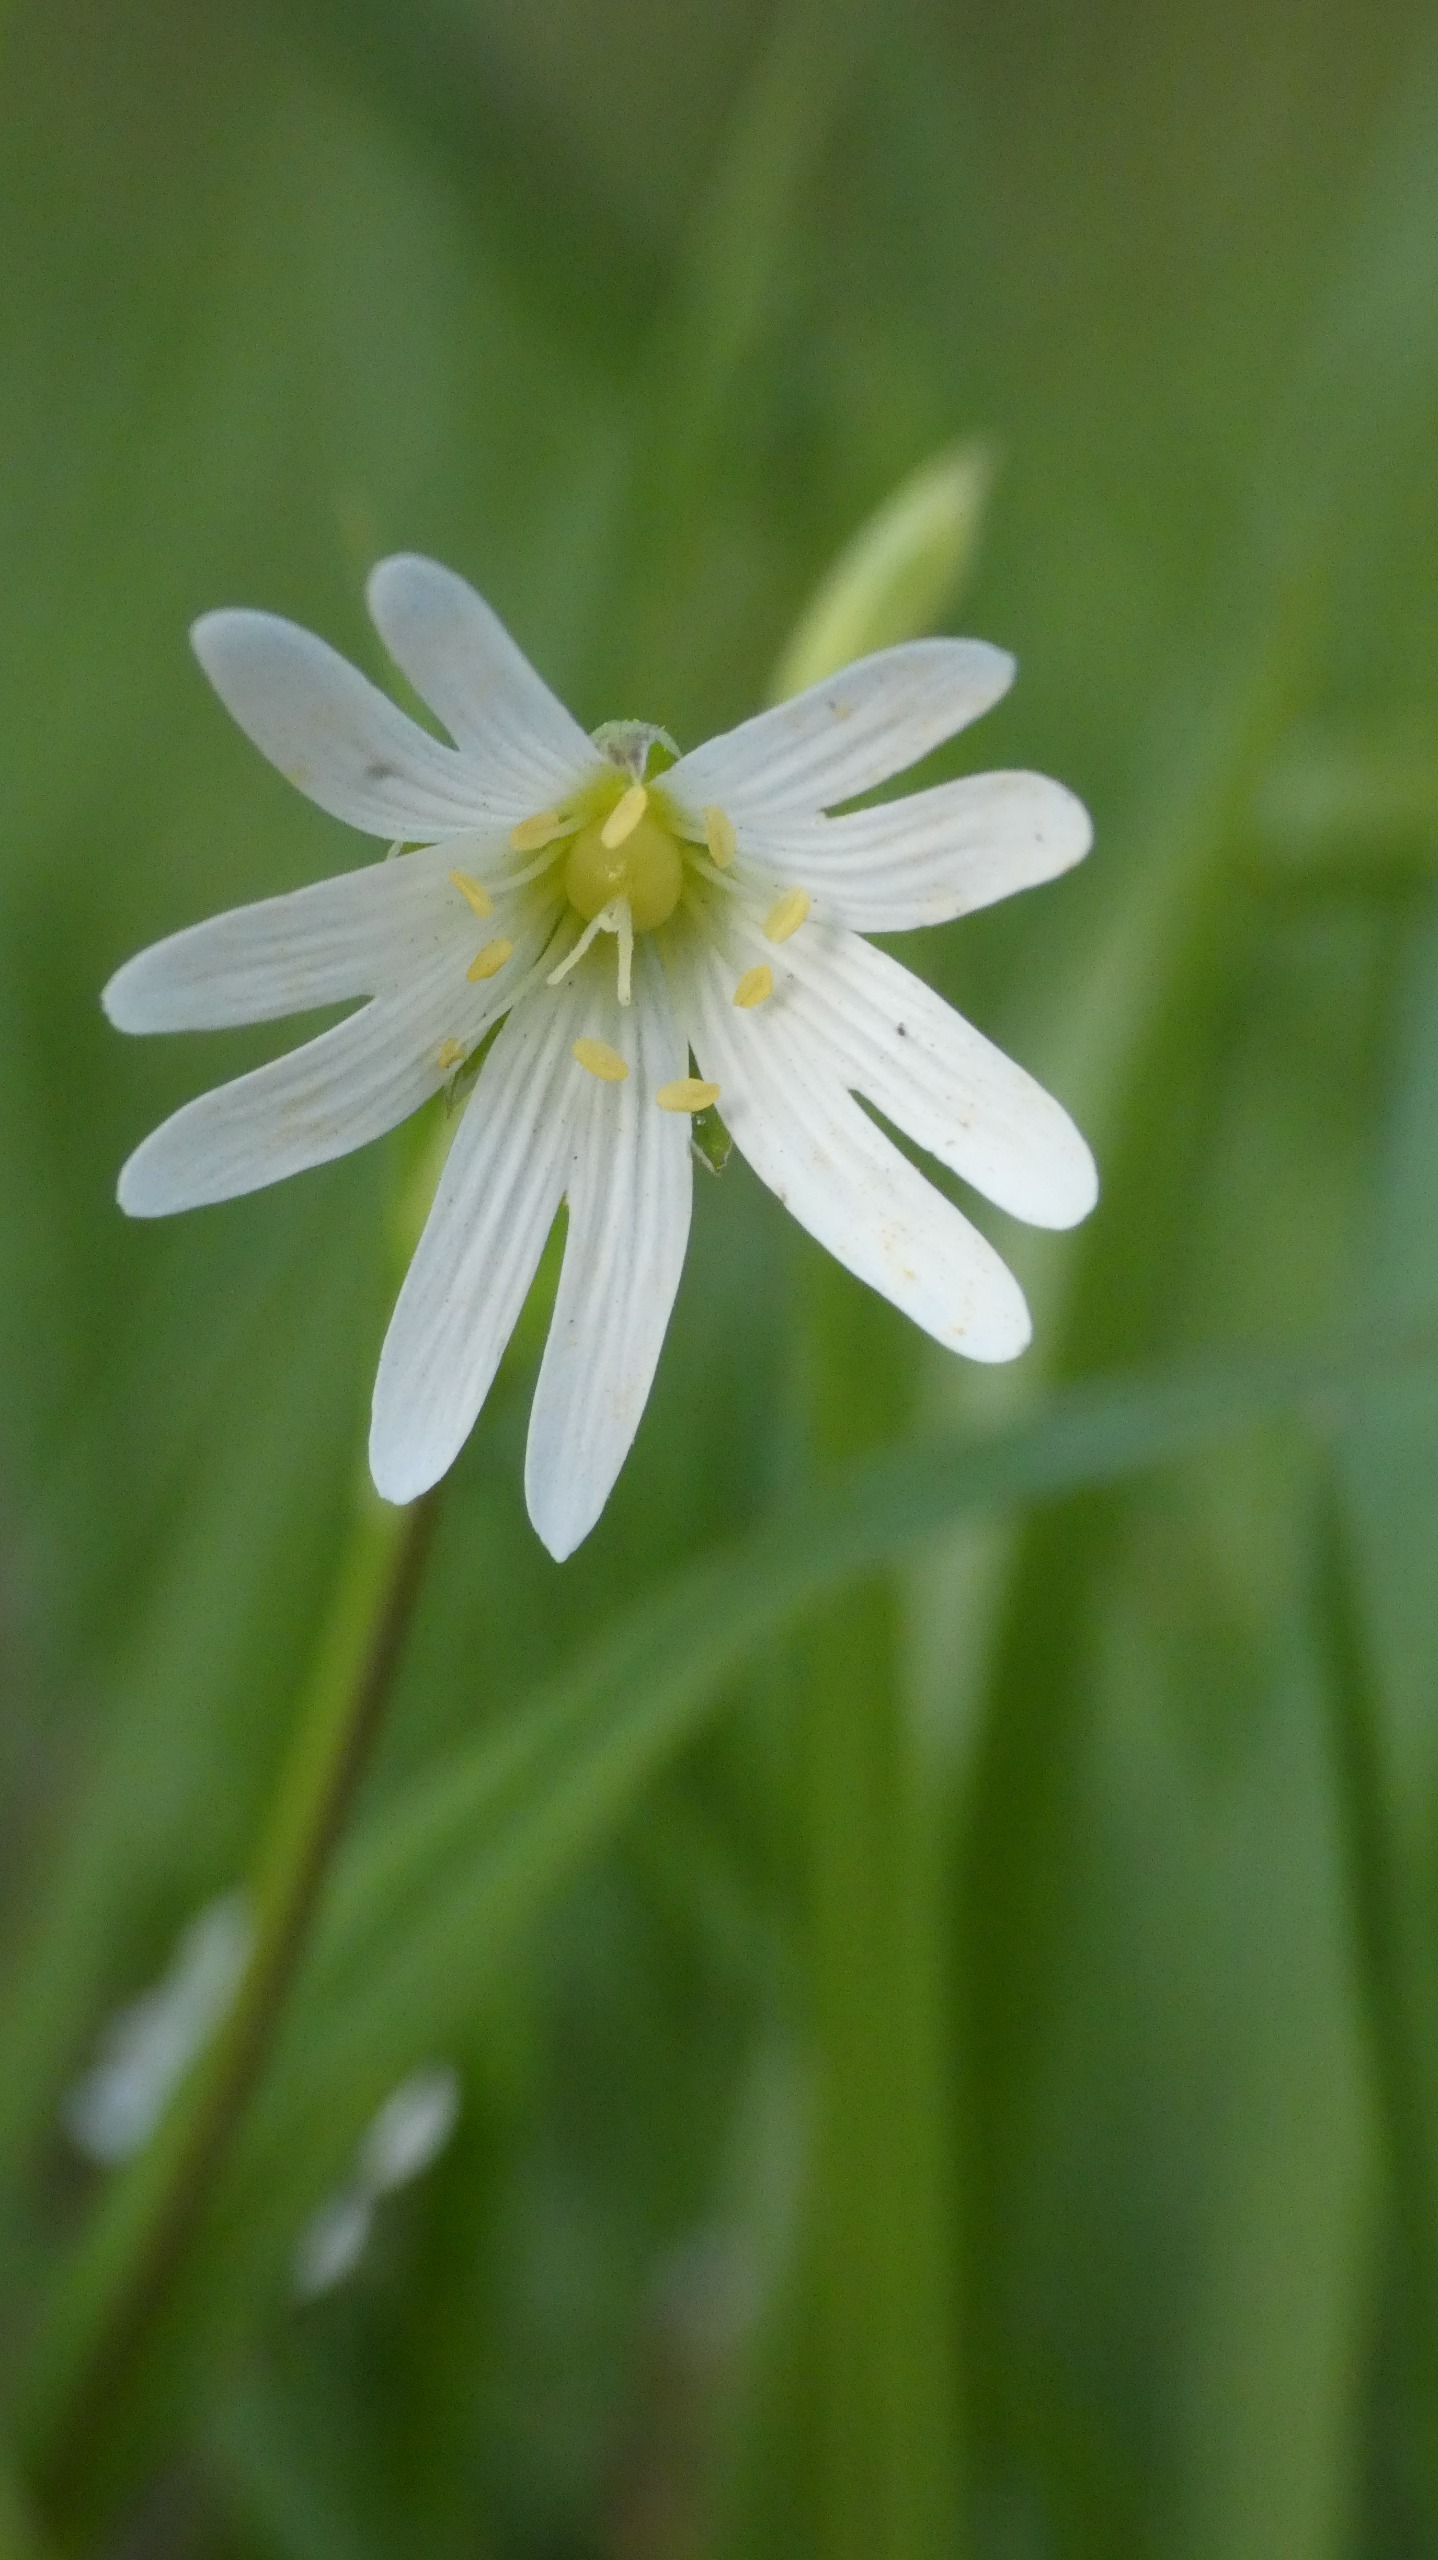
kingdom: Plantae
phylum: Tracheophyta
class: Magnoliopsida
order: Caryophyllales
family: Caryophyllaceae
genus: Rabelera
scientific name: Rabelera holostea
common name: Stor fladstjerne
